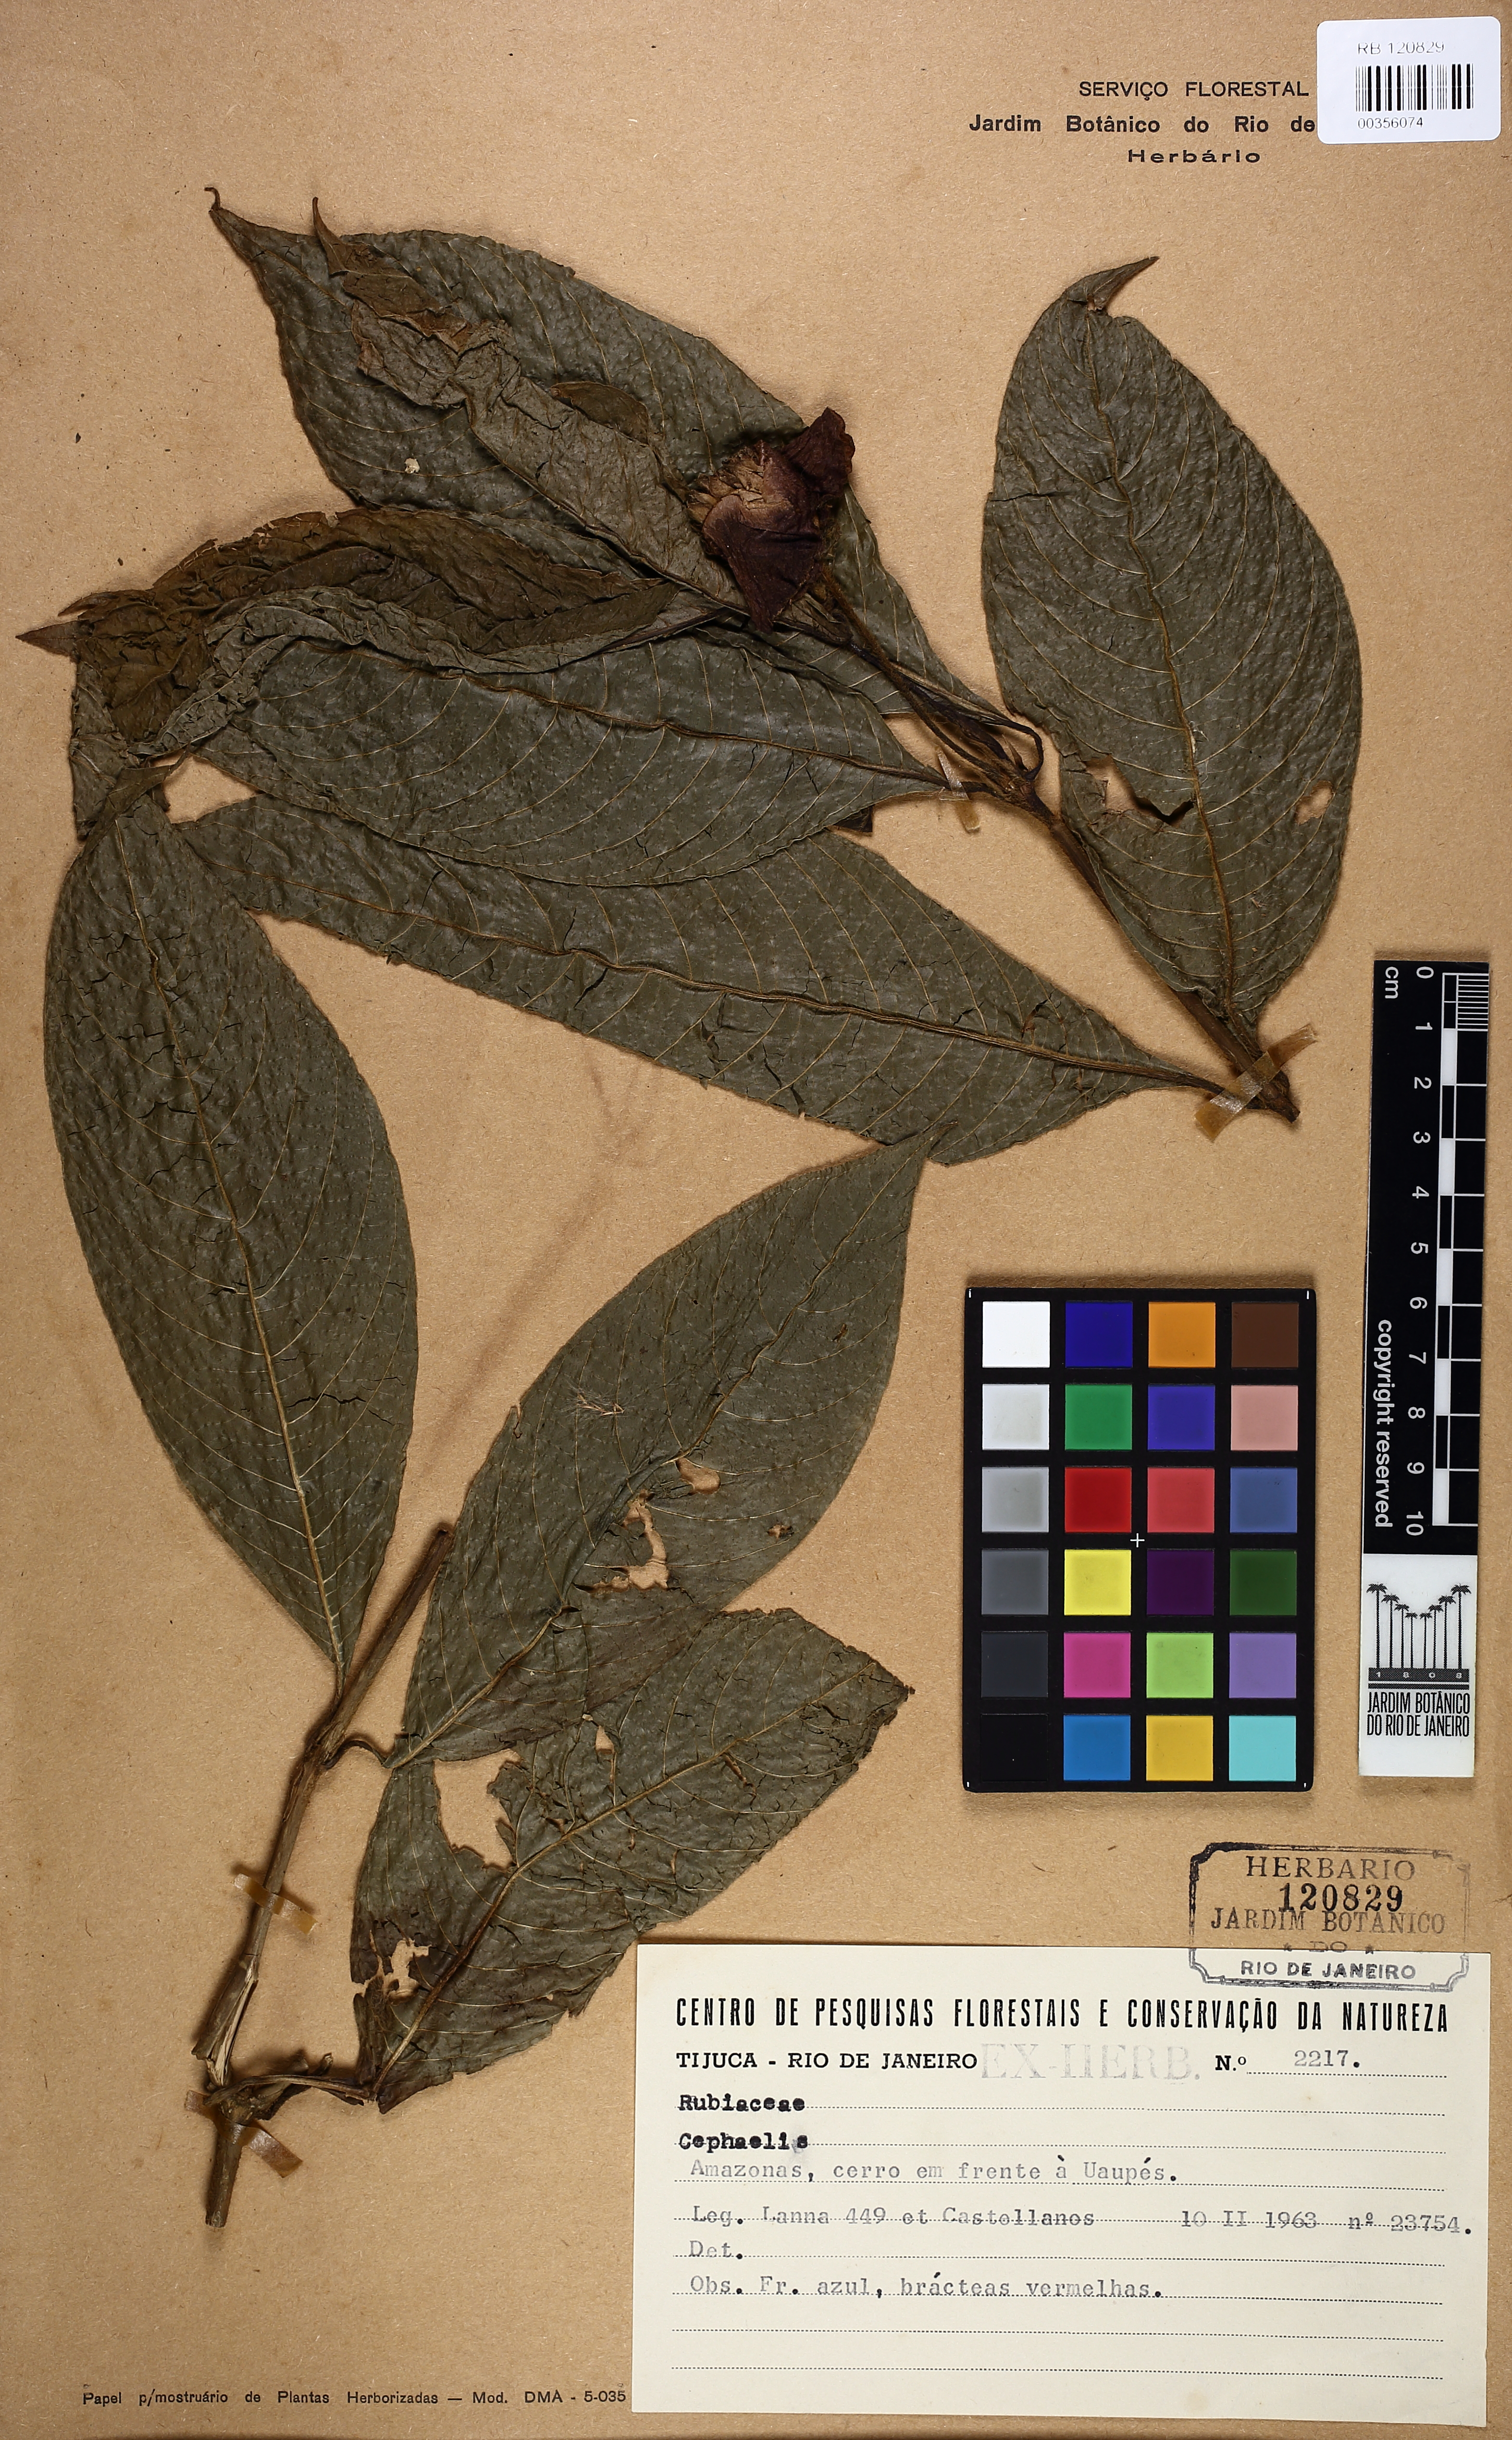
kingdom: Plantae
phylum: Tracheophyta
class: Magnoliopsida
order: Gentianales
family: Rubiaceae
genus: Palicourea
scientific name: Palicourea tomentosa
